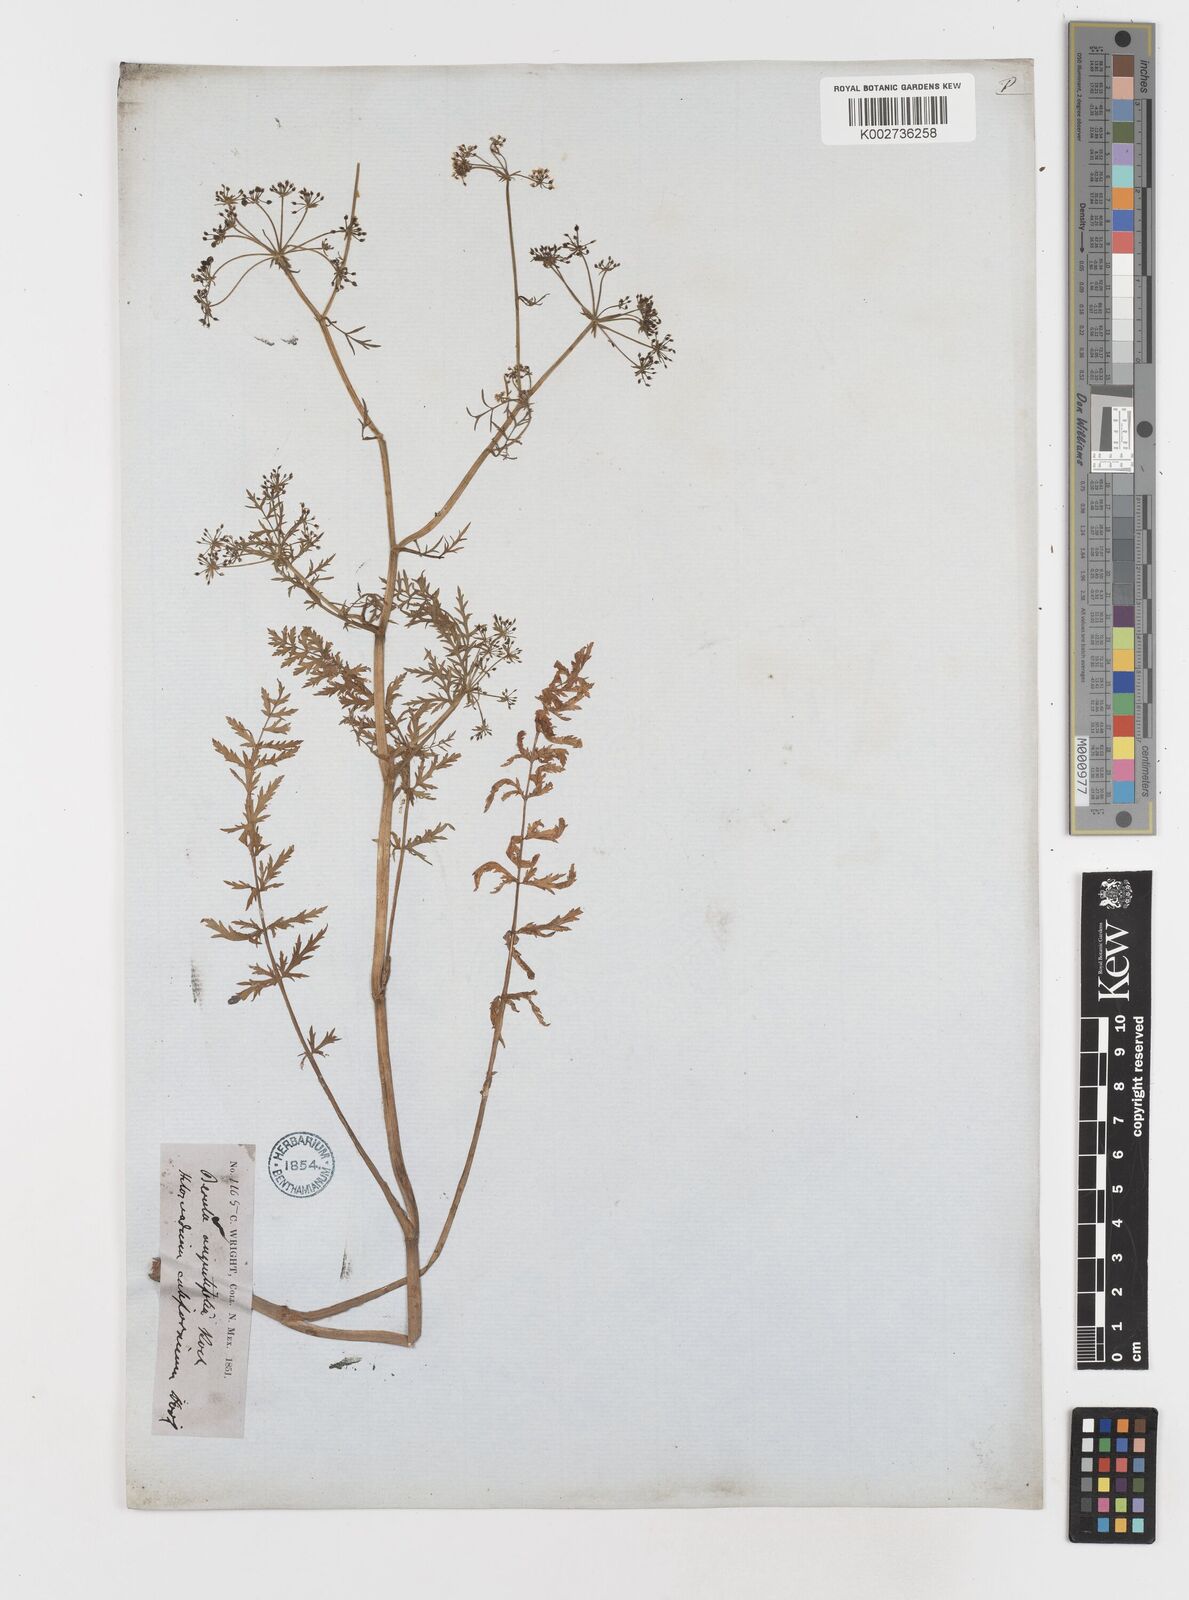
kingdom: Plantae
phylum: Tracheophyta
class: Magnoliopsida
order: Apiales
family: Apiaceae
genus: Berula
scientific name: Berula erecta
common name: Lesser water-parsnip
